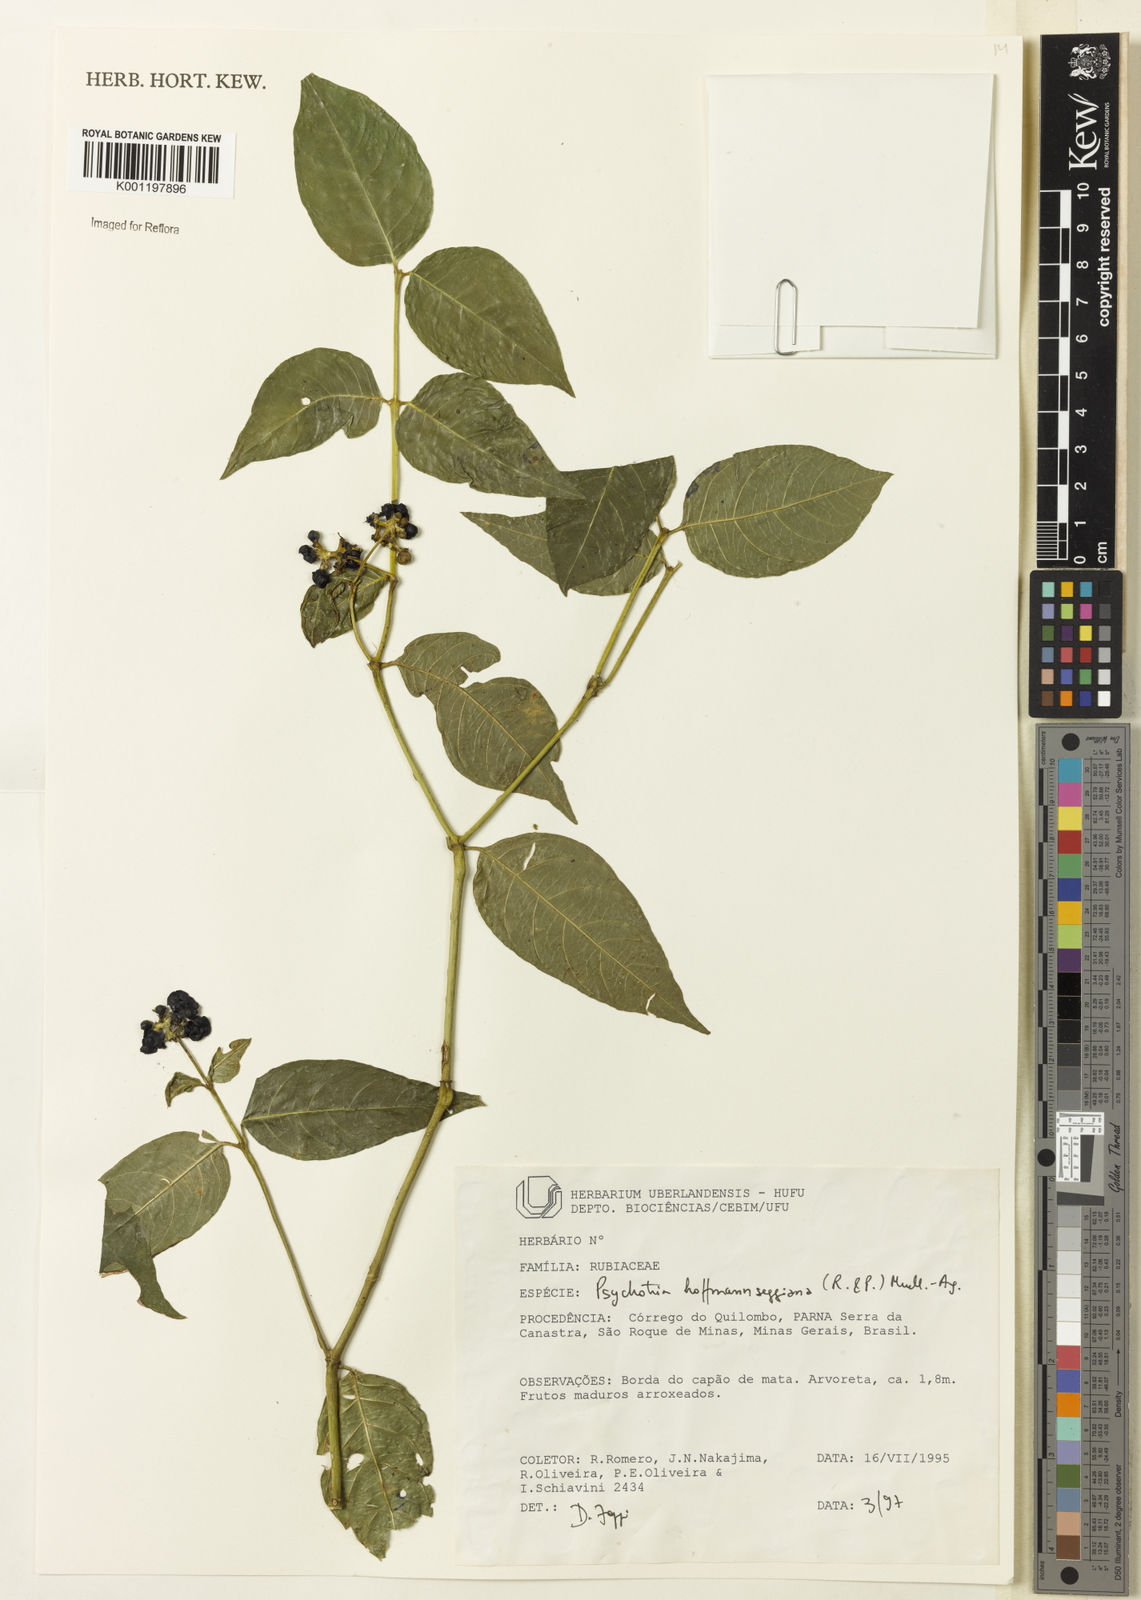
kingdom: Plantae
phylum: Tracheophyta
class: Magnoliopsida
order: Gentianales
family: Rubiaceae
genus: Psychotria
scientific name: Psychotria
